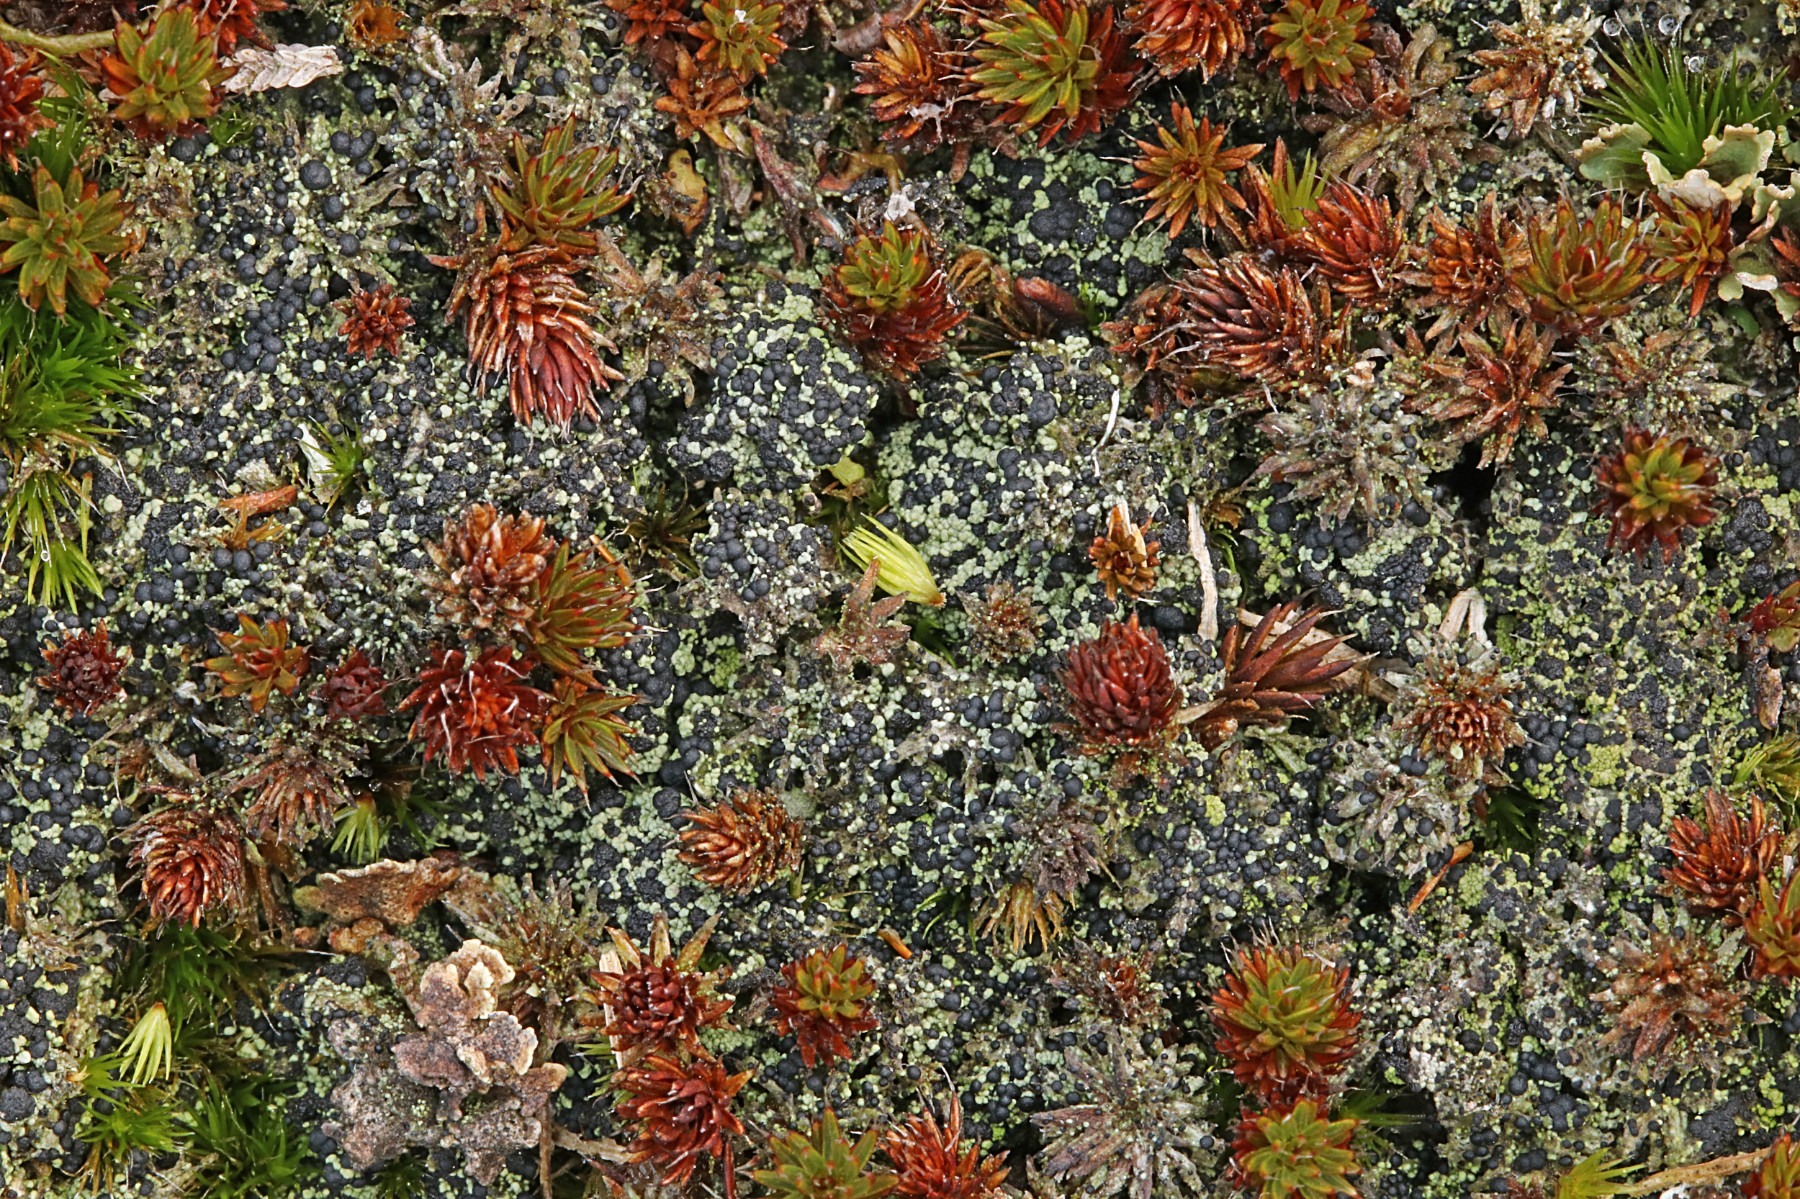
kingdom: Fungi
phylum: Ascomycota
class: Lecanoromycetes
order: Lecanorales
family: Byssolomataceae
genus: Micarea
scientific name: Micarea lignaria
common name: tørve-knaplav
